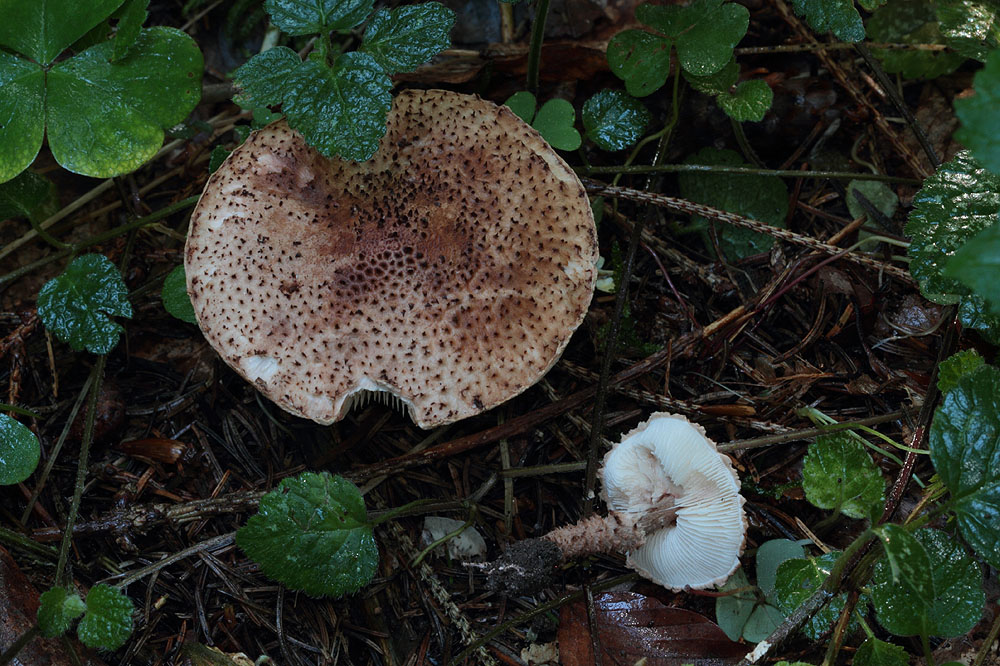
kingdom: Fungi
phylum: Basidiomycota
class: Agaricomycetes
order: Agaricales
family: Agaricaceae
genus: Echinoderma
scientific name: Echinoderma echinaceum
